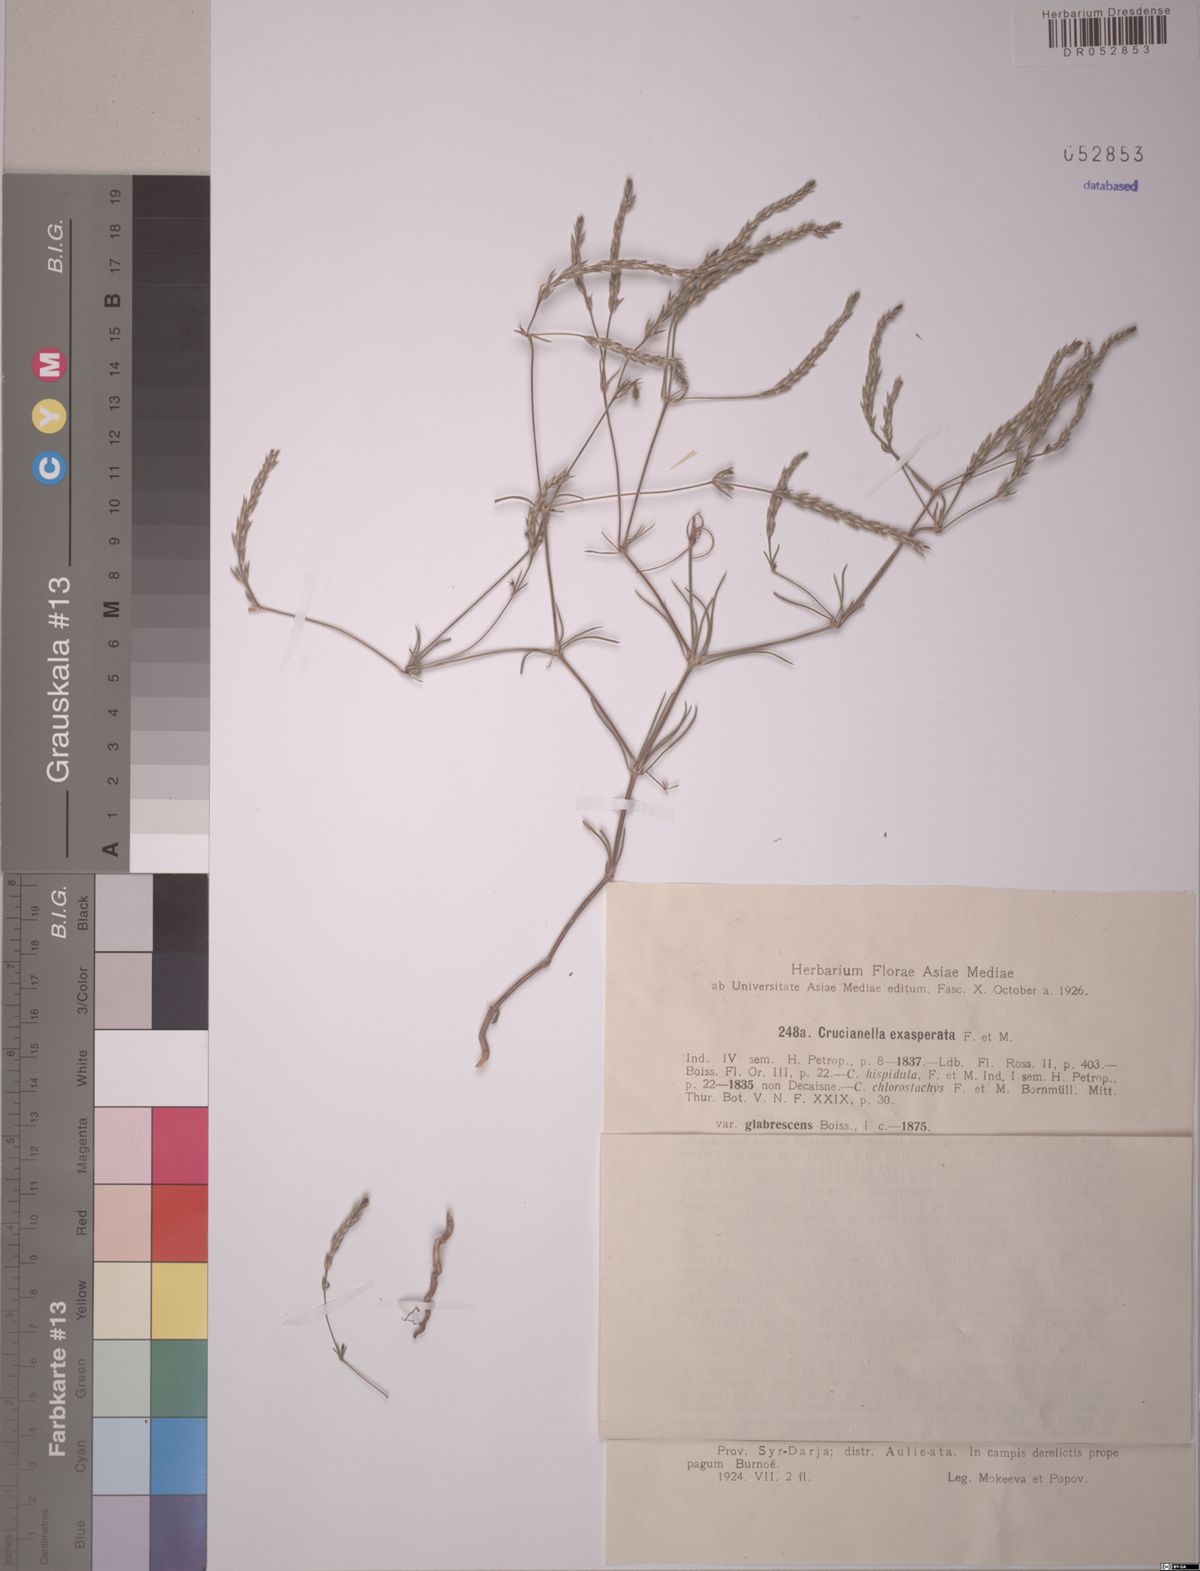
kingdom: Plantae
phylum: Tracheophyta
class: Magnoliopsida
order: Gentianales
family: Rubiaceae
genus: Crucianella
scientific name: Crucianella exasperata
